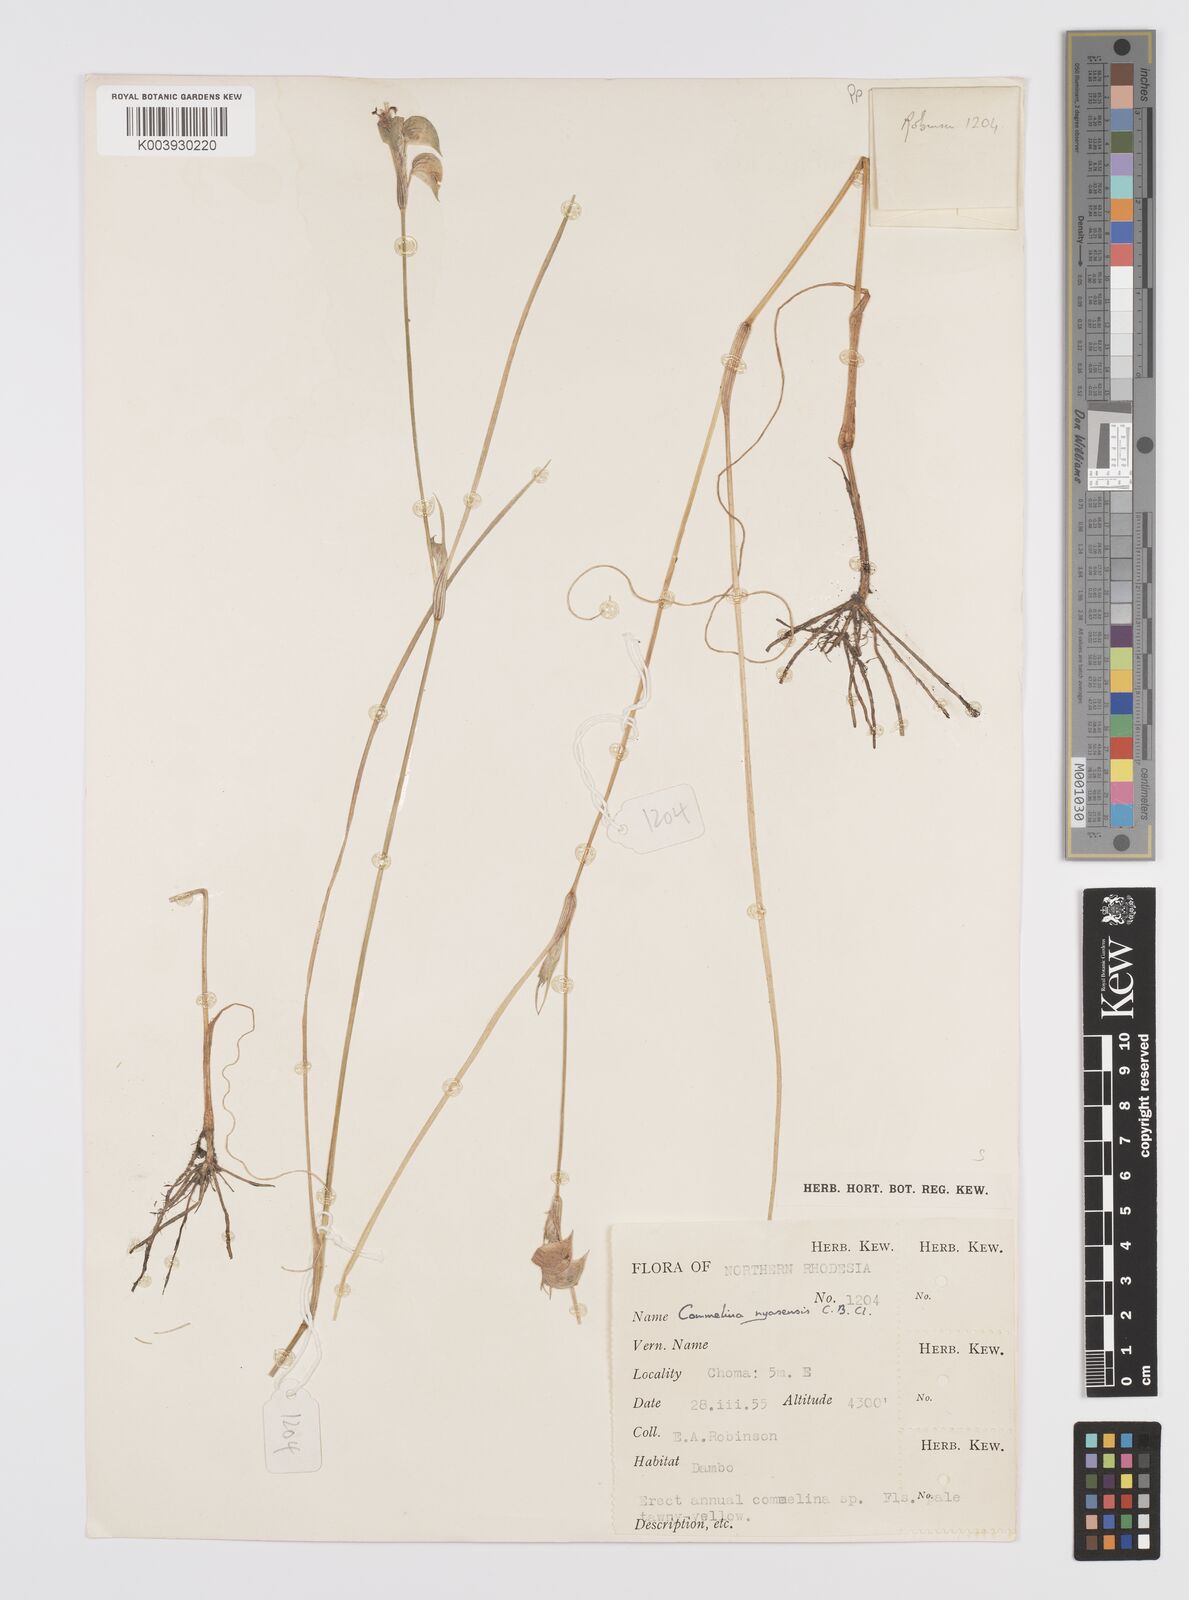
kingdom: Plantae
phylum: Tracheophyta
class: Liliopsida
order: Commelinales
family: Commelinaceae
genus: Commelina
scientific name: Commelina nyasensis
